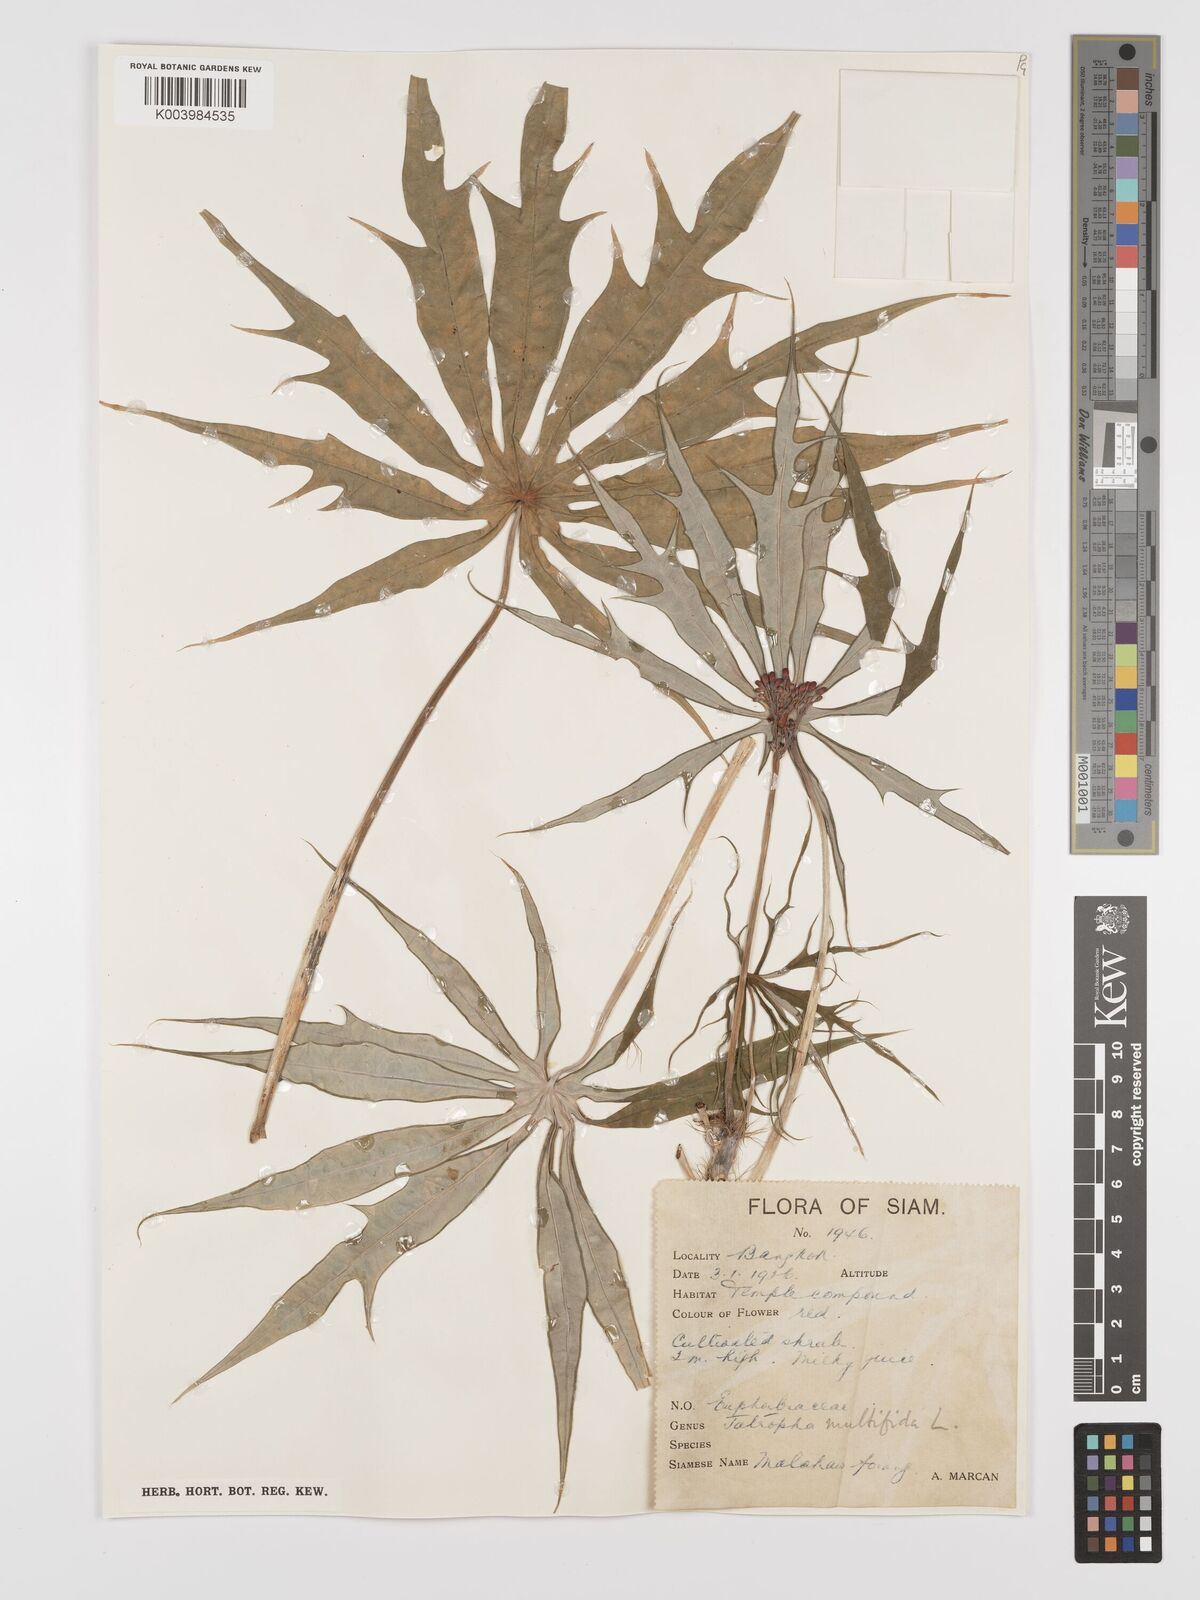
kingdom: Plantae
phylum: Tracheophyta
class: Magnoliopsida
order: Malpighiales
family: Euphorbiaceae
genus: Jatropha
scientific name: Jatropha multifida
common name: Coralbush
